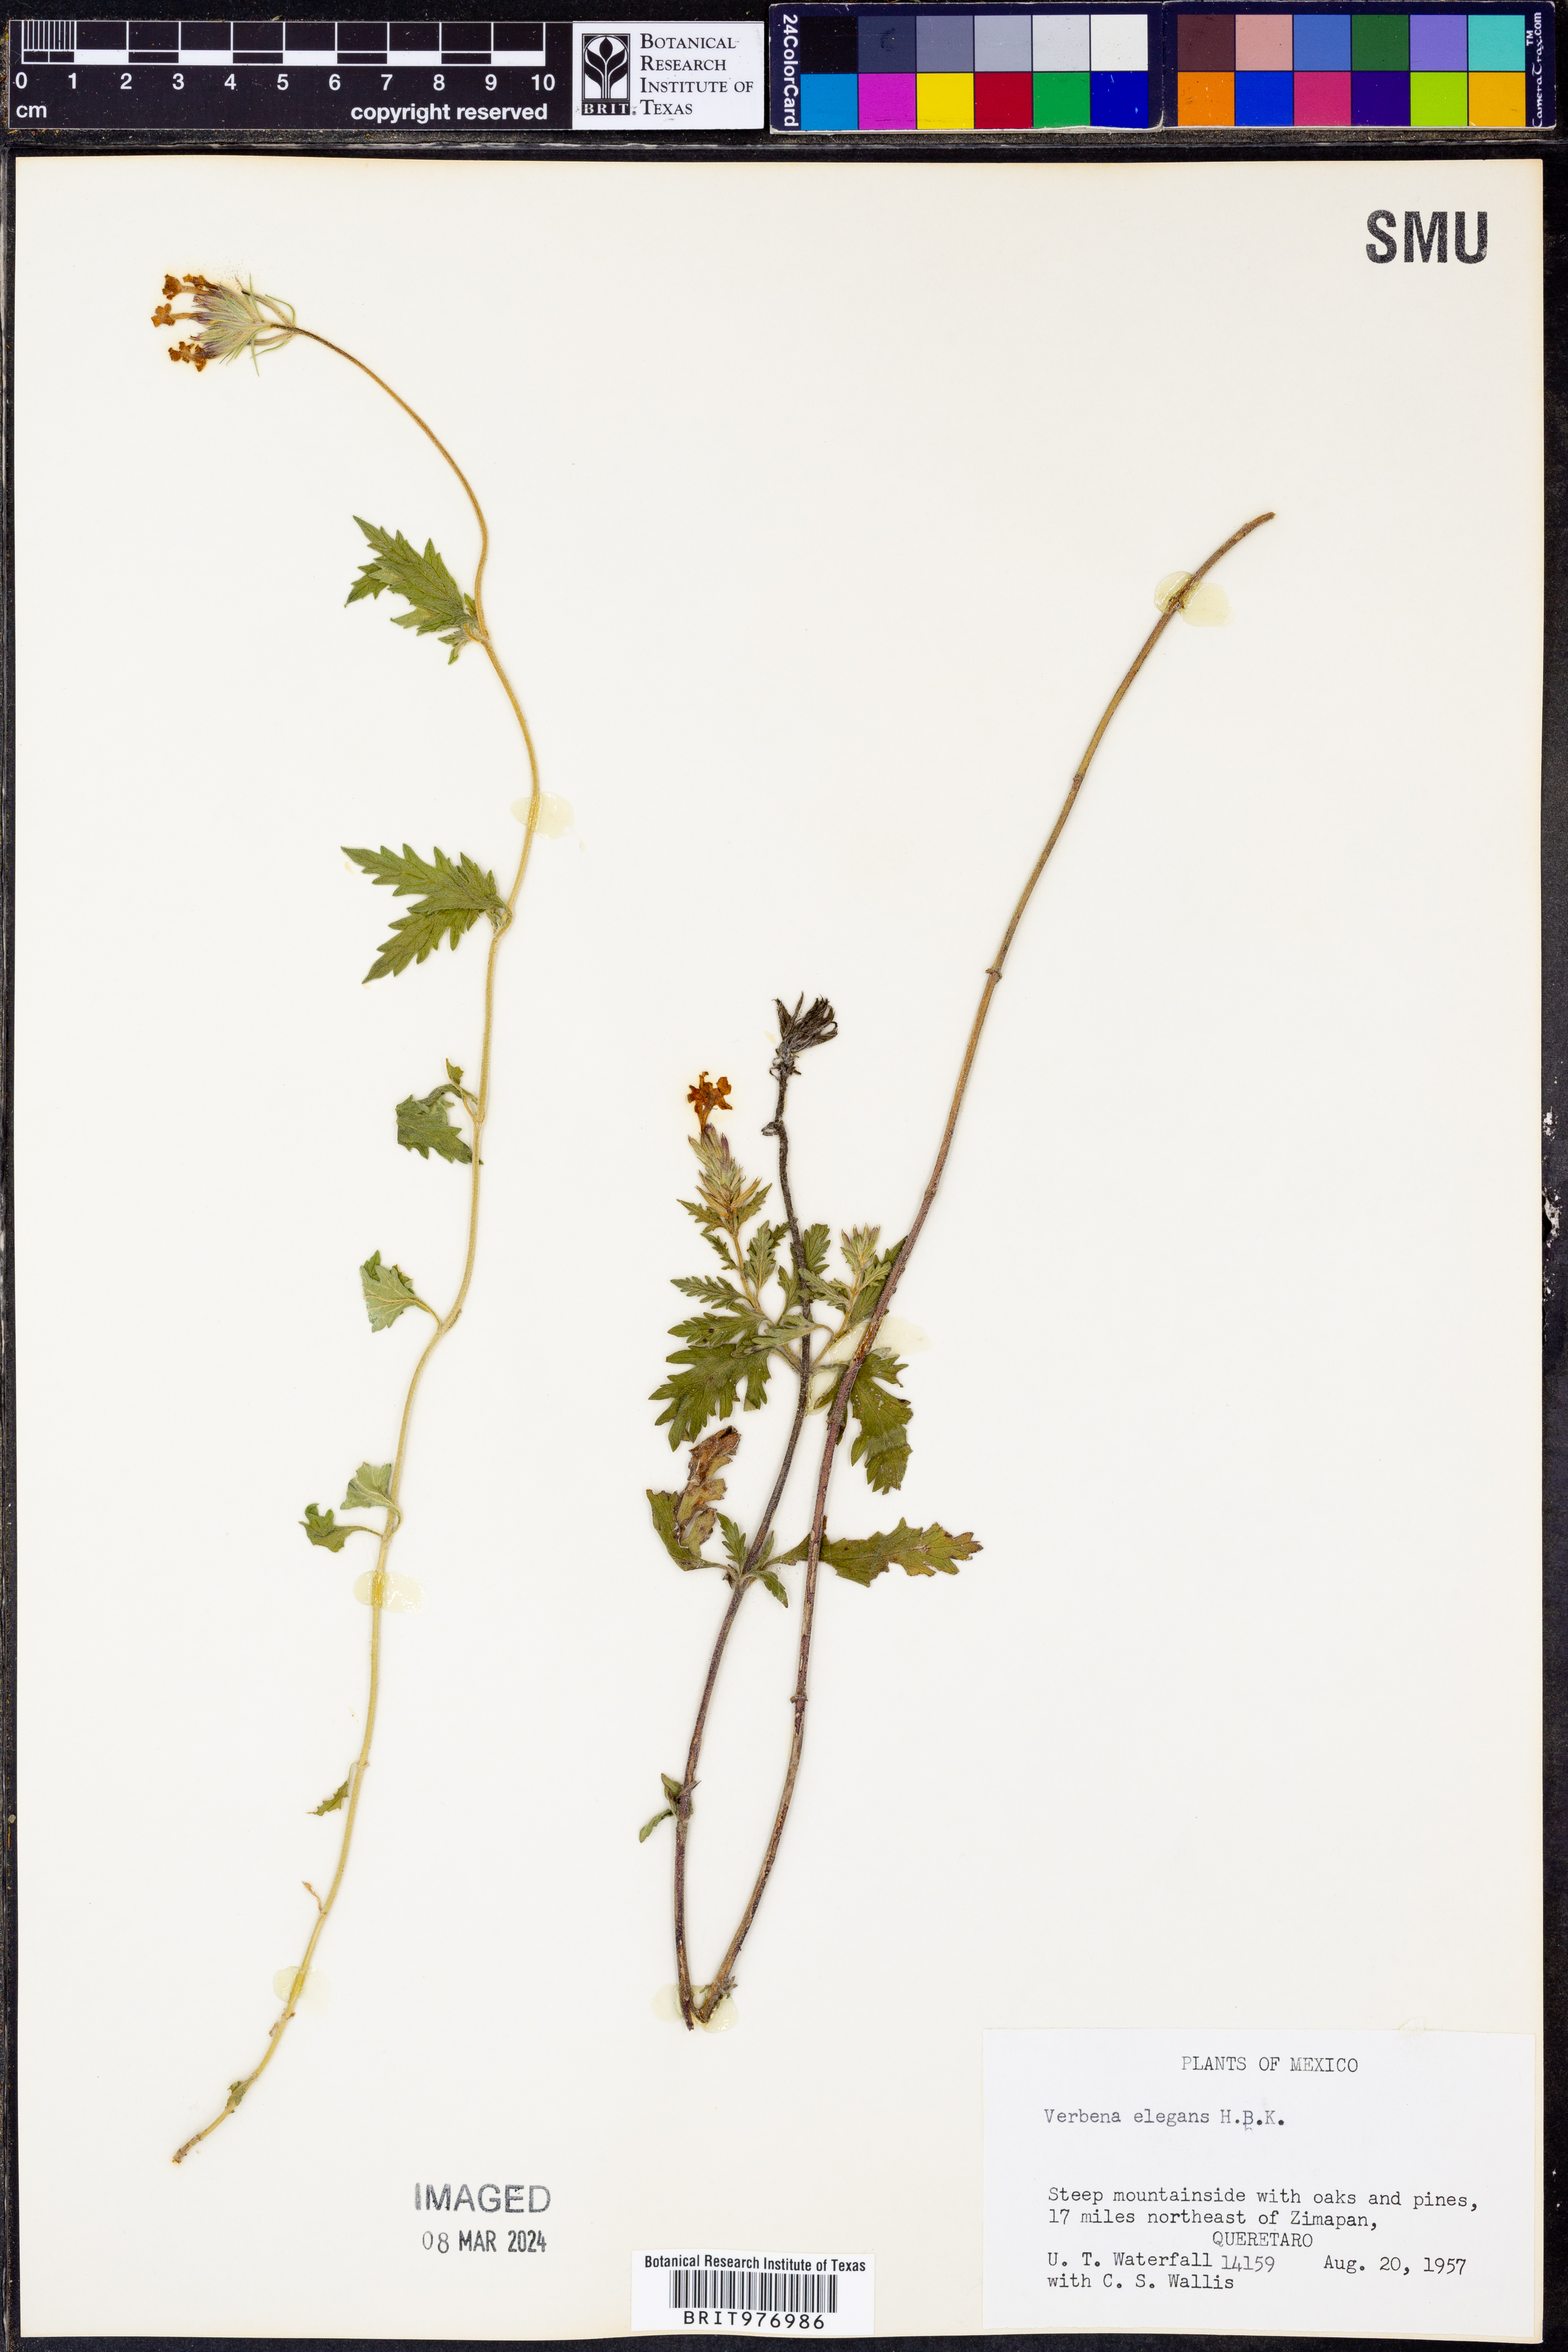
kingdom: Plantae
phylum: Tracheophyta
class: Magnoliopsida
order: Lamiales
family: Verbenaceae
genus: Verbena
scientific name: Verbena elegans
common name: Elegant vervain
